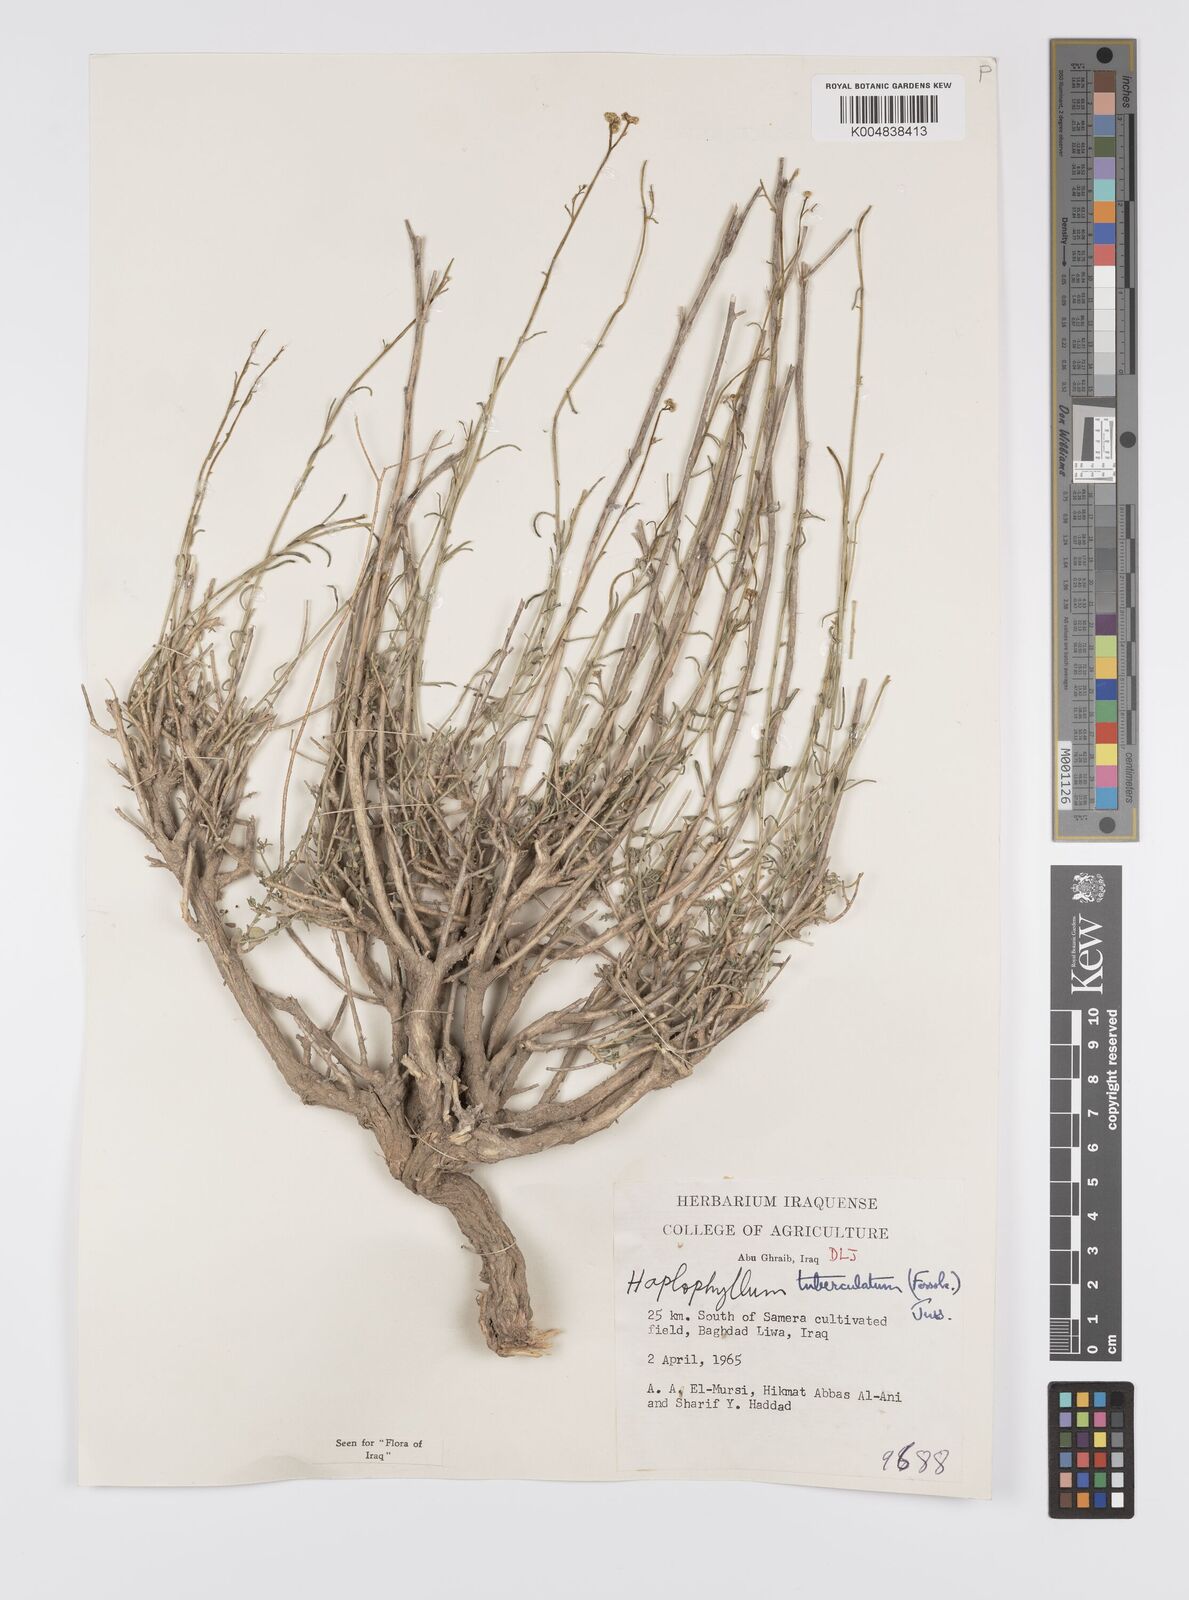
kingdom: Plantae
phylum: Tracheophyta
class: Magnoliopsida
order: Sapindales
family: Rutaceae
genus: Haplophyllum
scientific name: Haplophyllum tuberculatum
